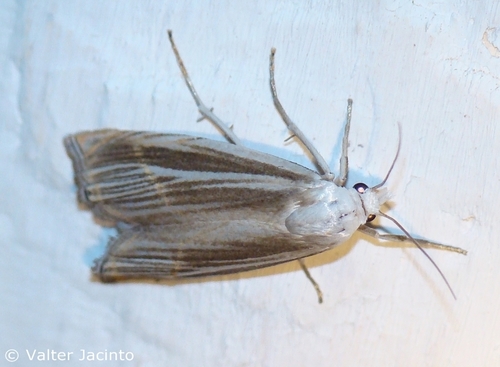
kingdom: Animalia
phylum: Arthropoda
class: Insecta
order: Lepidoptera
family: Crambidae
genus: Metacrambus
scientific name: Metacrambus pallidellus
